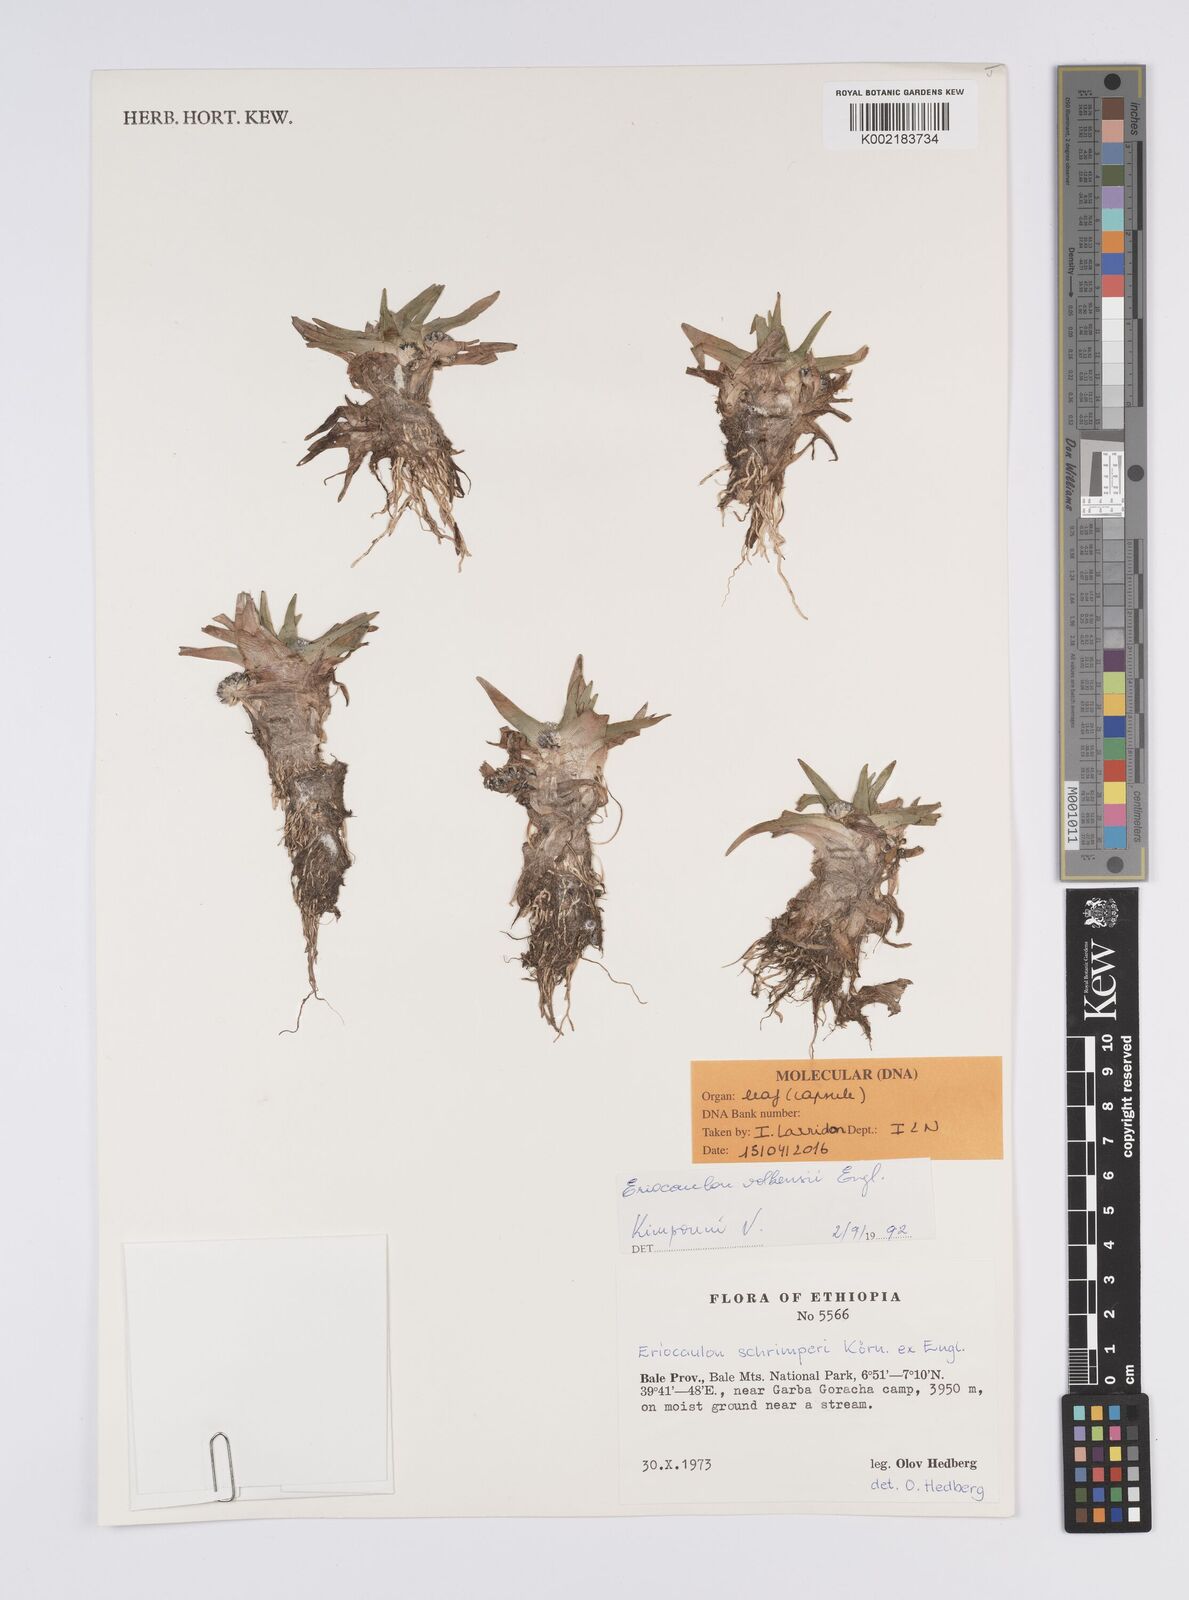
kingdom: Plantae
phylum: Tracheophyta
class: Liliopsida
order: Poales
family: Eriocaulaceae
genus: Eriocaulon
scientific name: Eriocaulon schimperi
